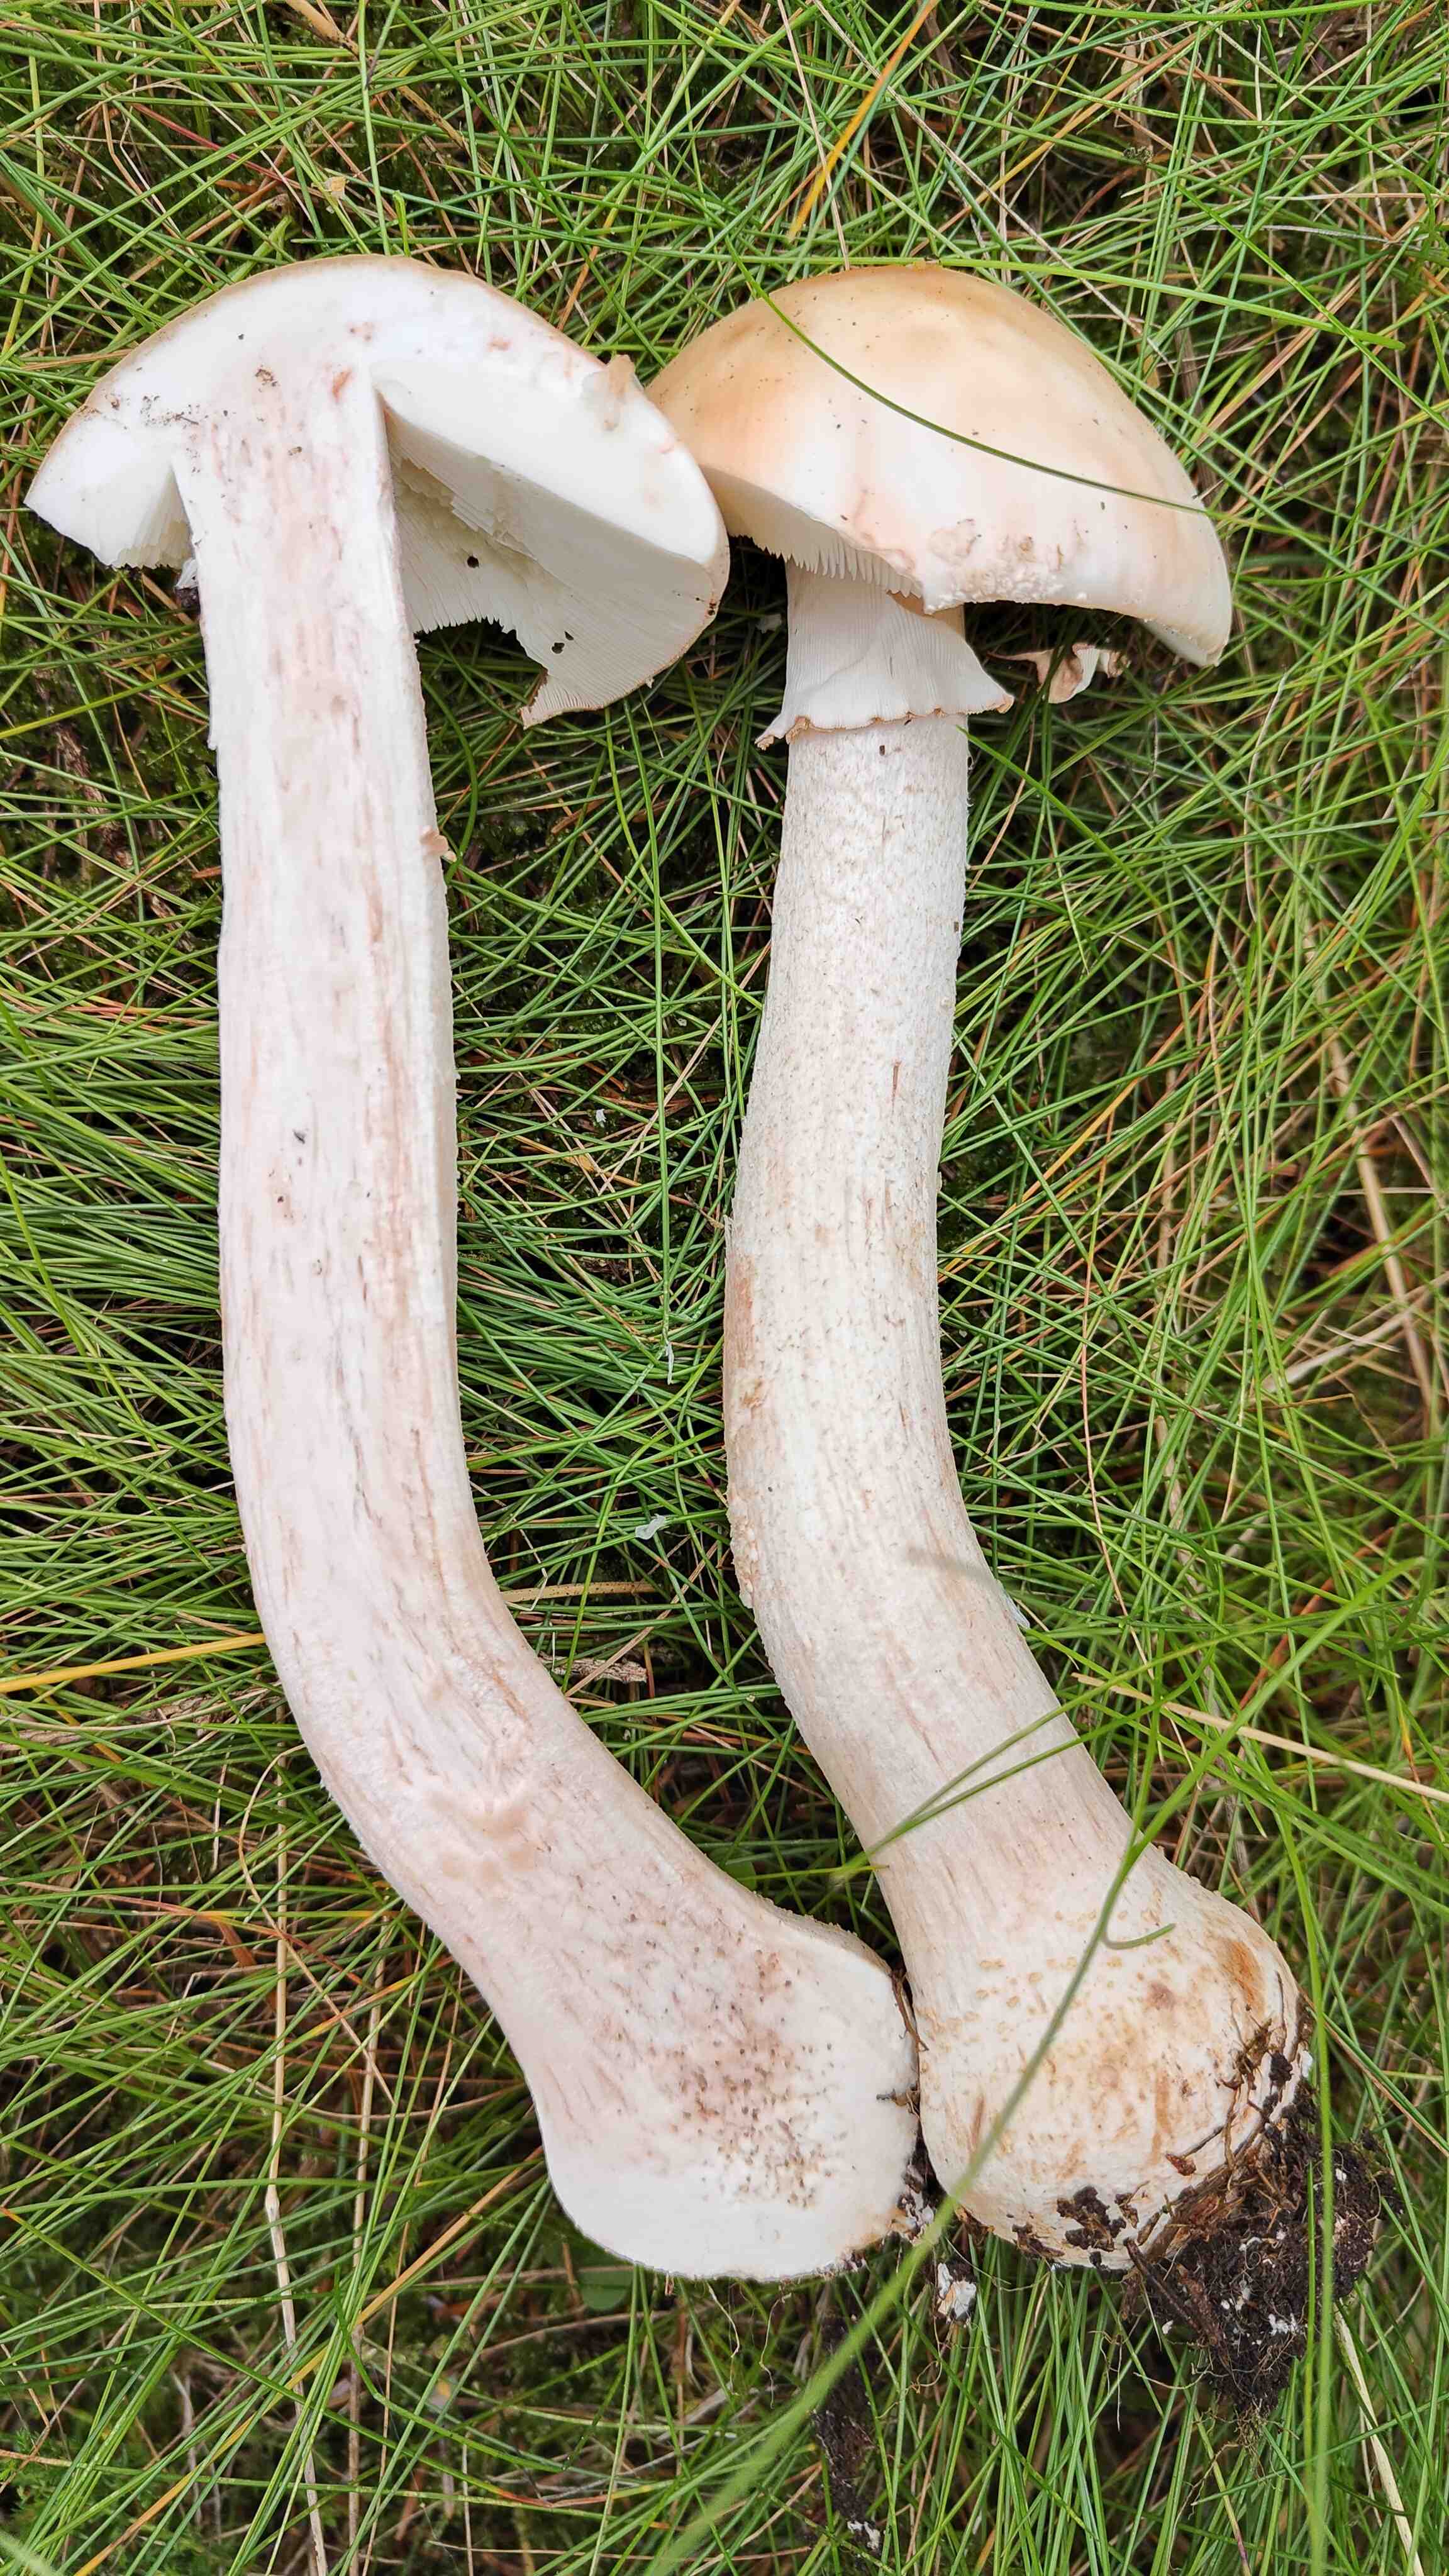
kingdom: Fungi
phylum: Basidiomycota
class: Agaricomycetes
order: Agaricales
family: Amanitaceae
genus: Amanita
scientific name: Amanita rubescens
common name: rødmende fluesvamp
